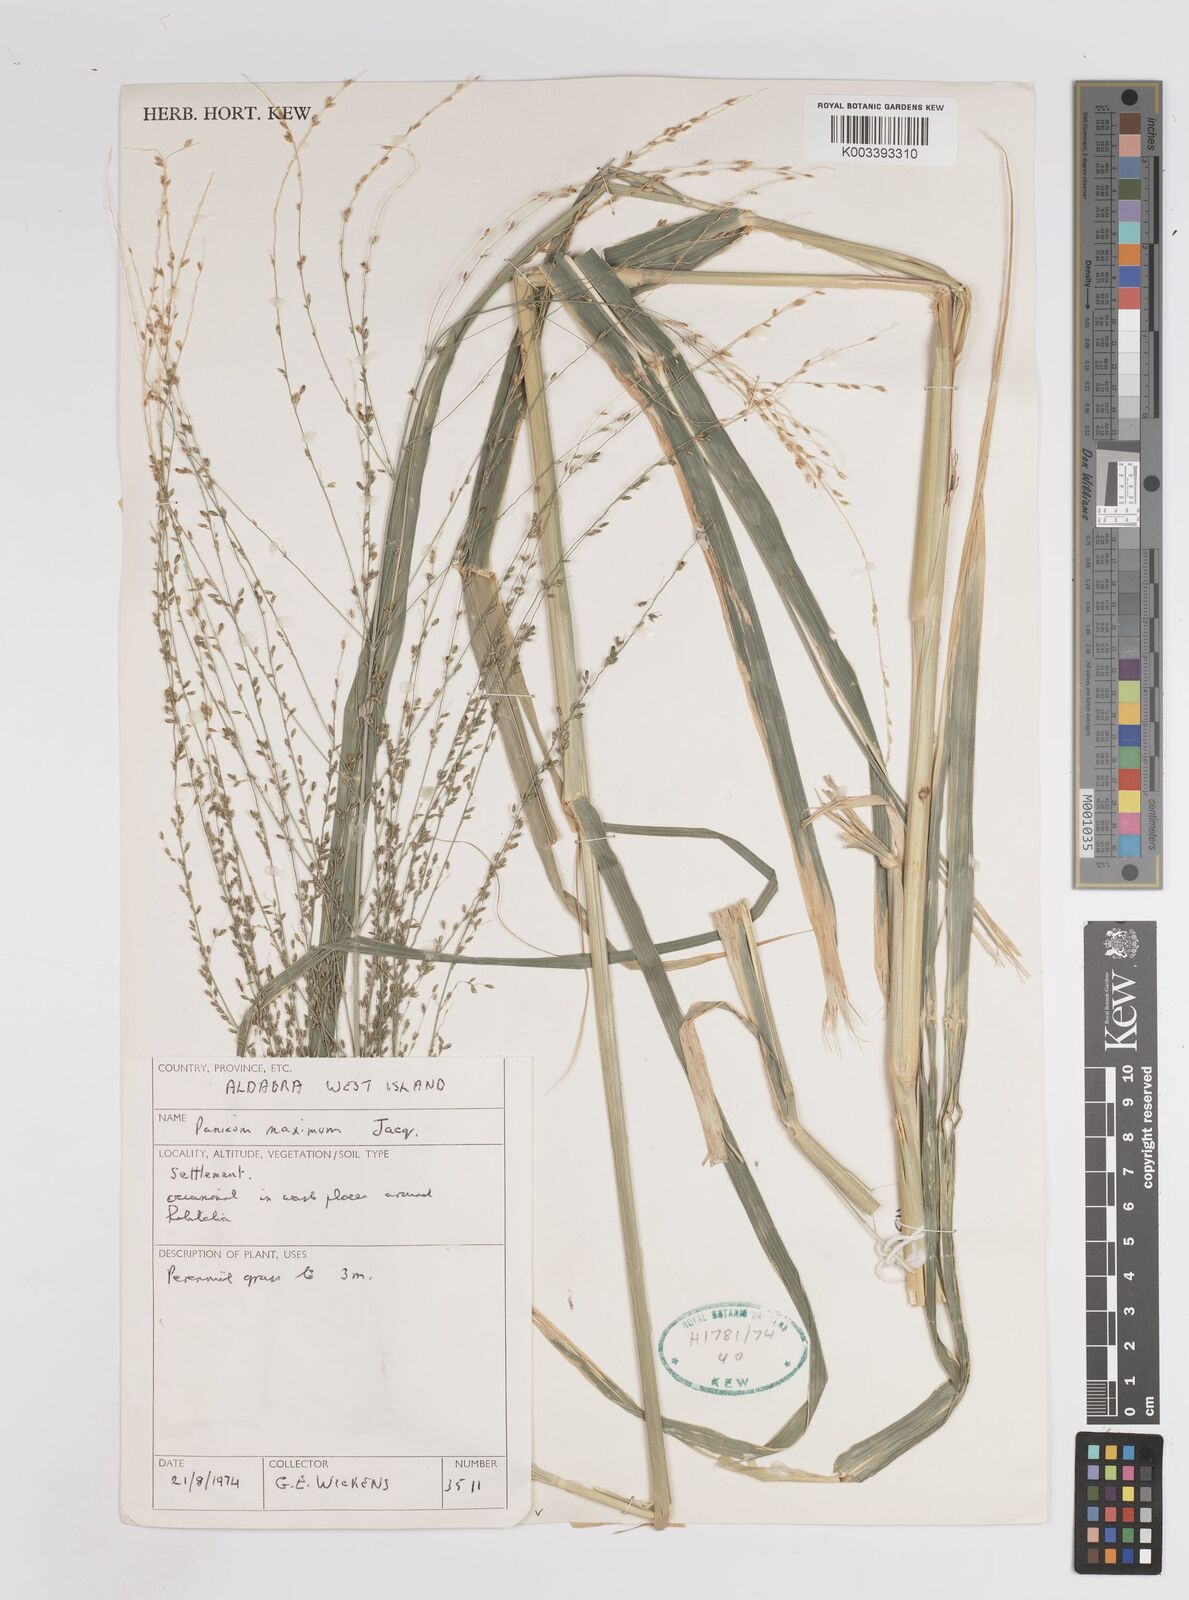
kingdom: Plantae
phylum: Tracheophyta
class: Liliopsida
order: Poales
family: Poaceae
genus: Megathyrsus
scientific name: Megathyrsus maximus
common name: Guineagrass
